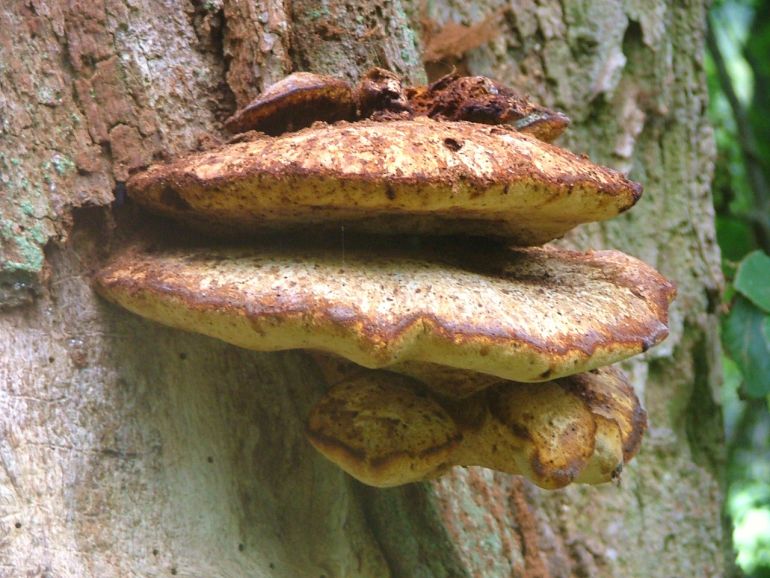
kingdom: Fungi
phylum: Basidiomycota
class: Agaricomycetes
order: Polyporales
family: Fomitopsidaceae
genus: Buglossoporus
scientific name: Buglossoporus quercinus
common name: egetunge
